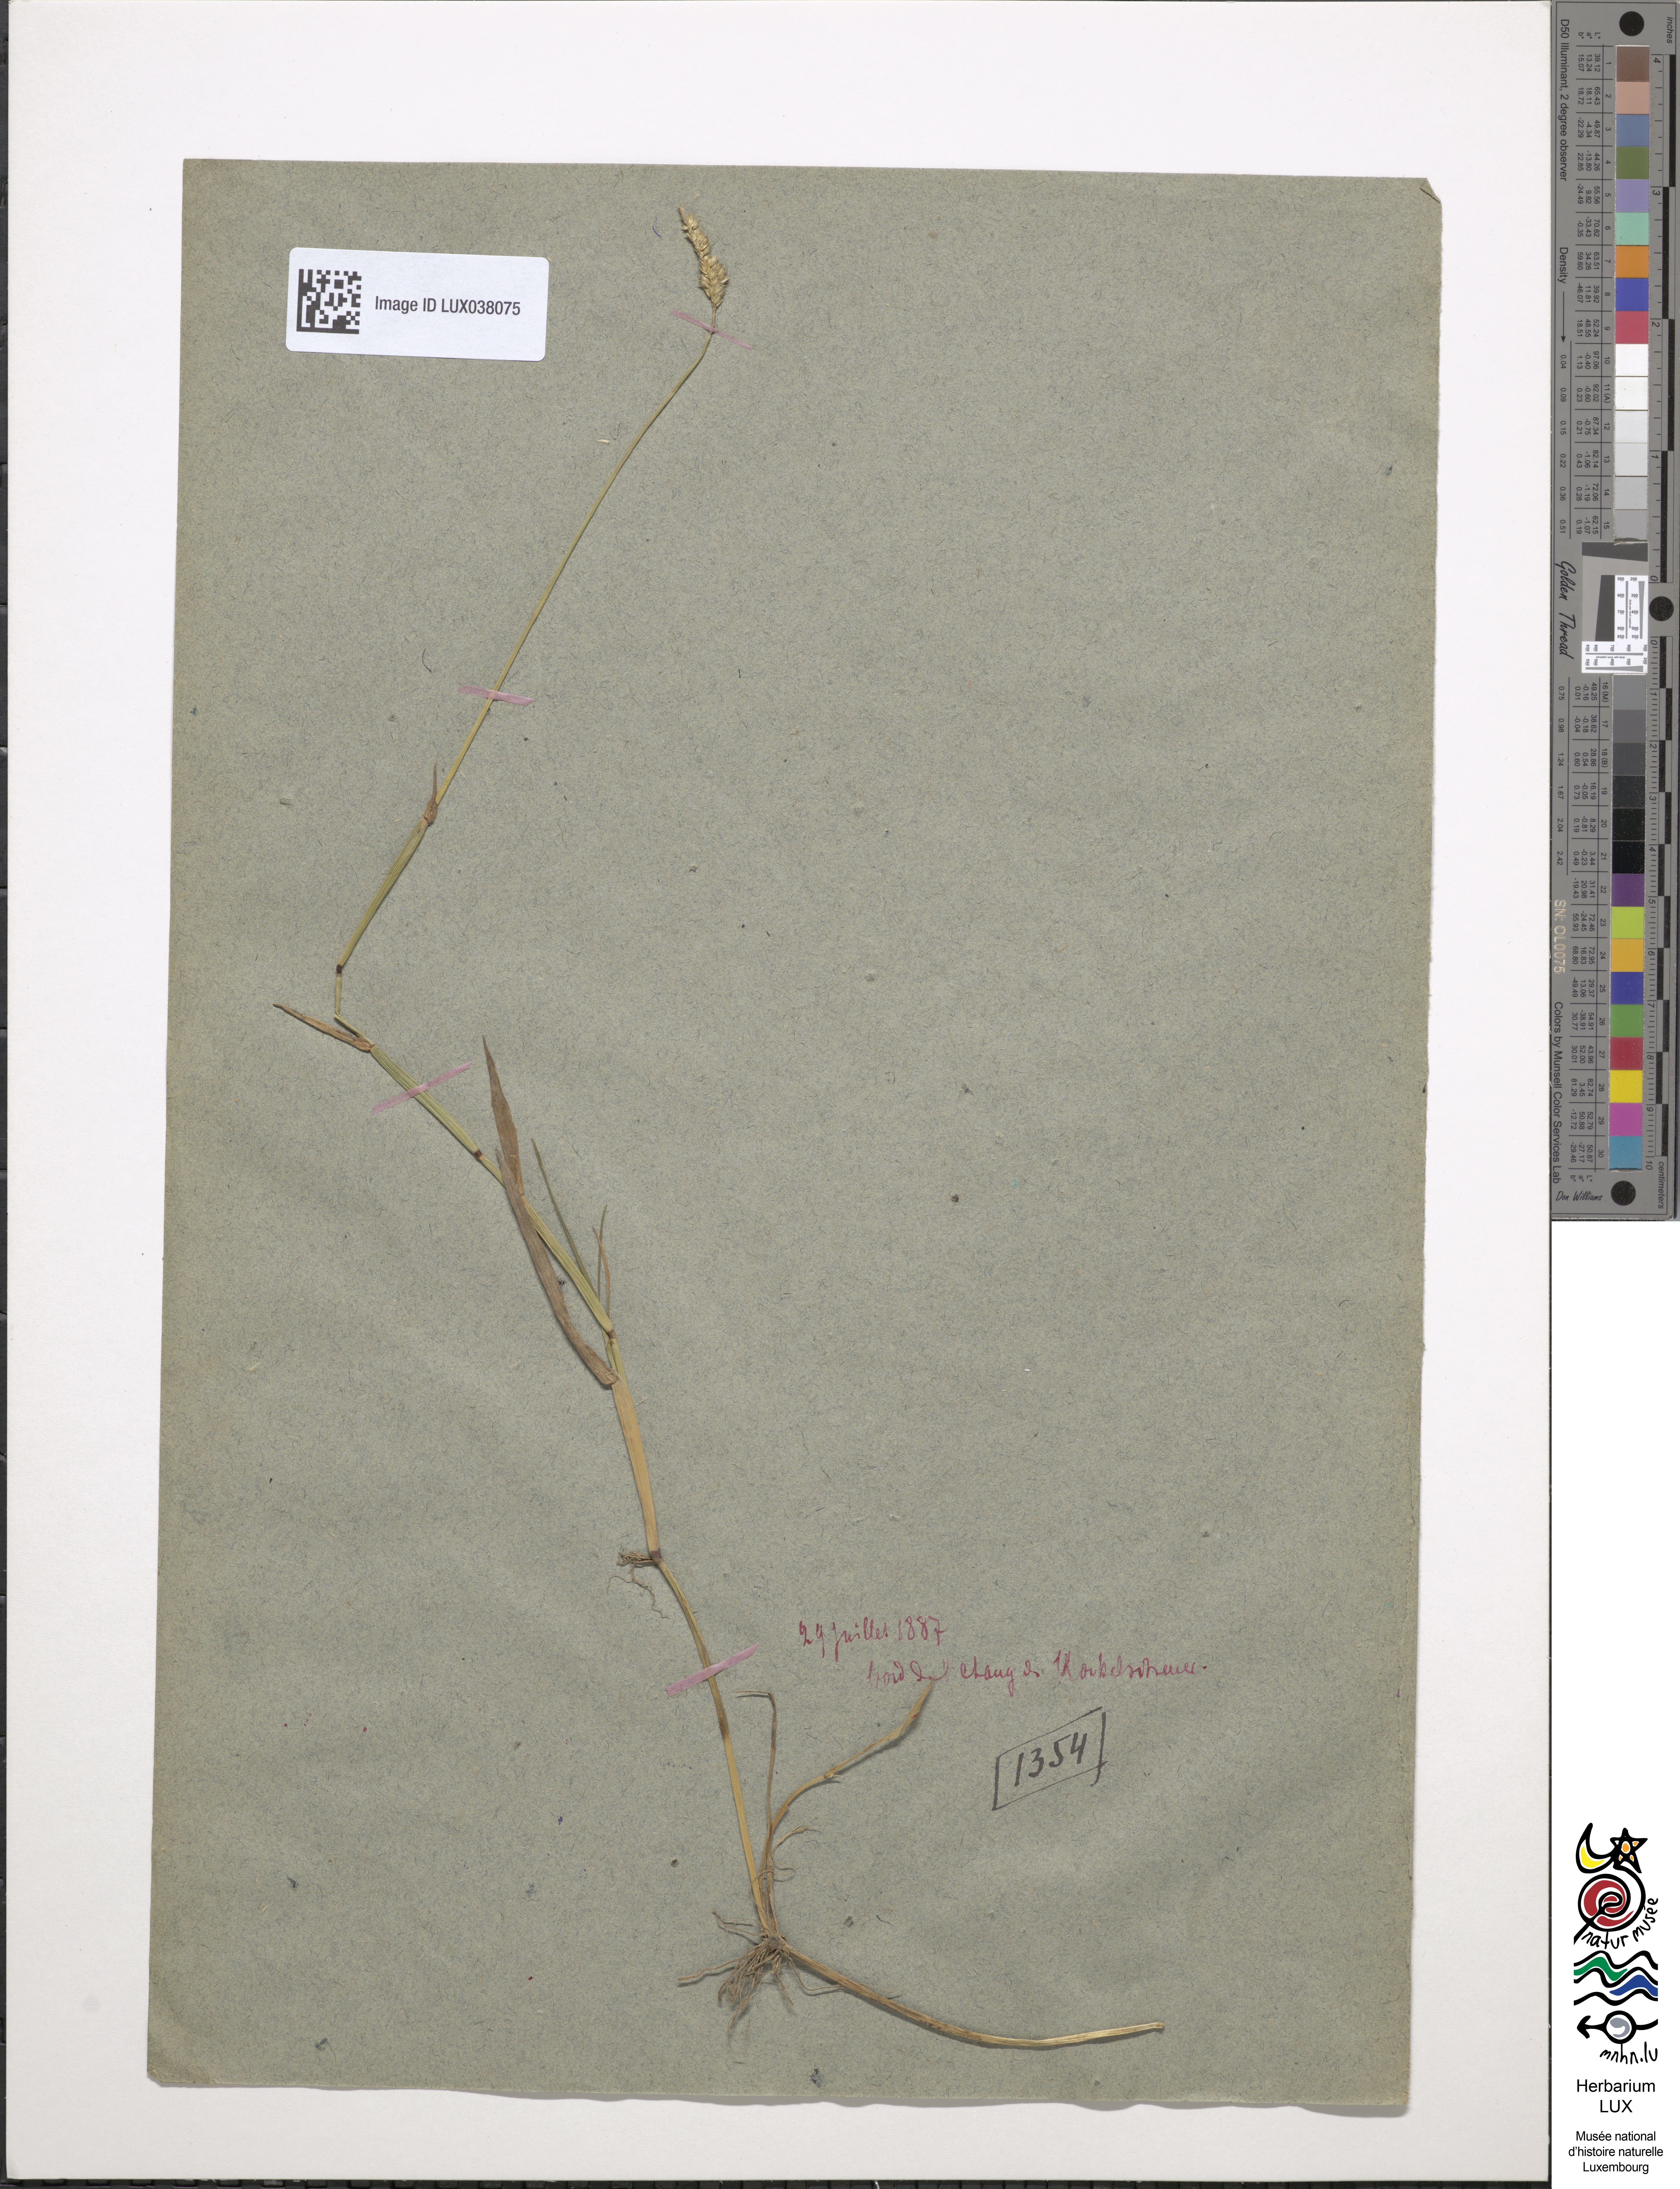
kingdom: Plantae
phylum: Tracheophyta
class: Liliopsida
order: Poales
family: Poaceae
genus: Alopecurus
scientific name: Alopecurus geniculatus
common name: Water foxtail
